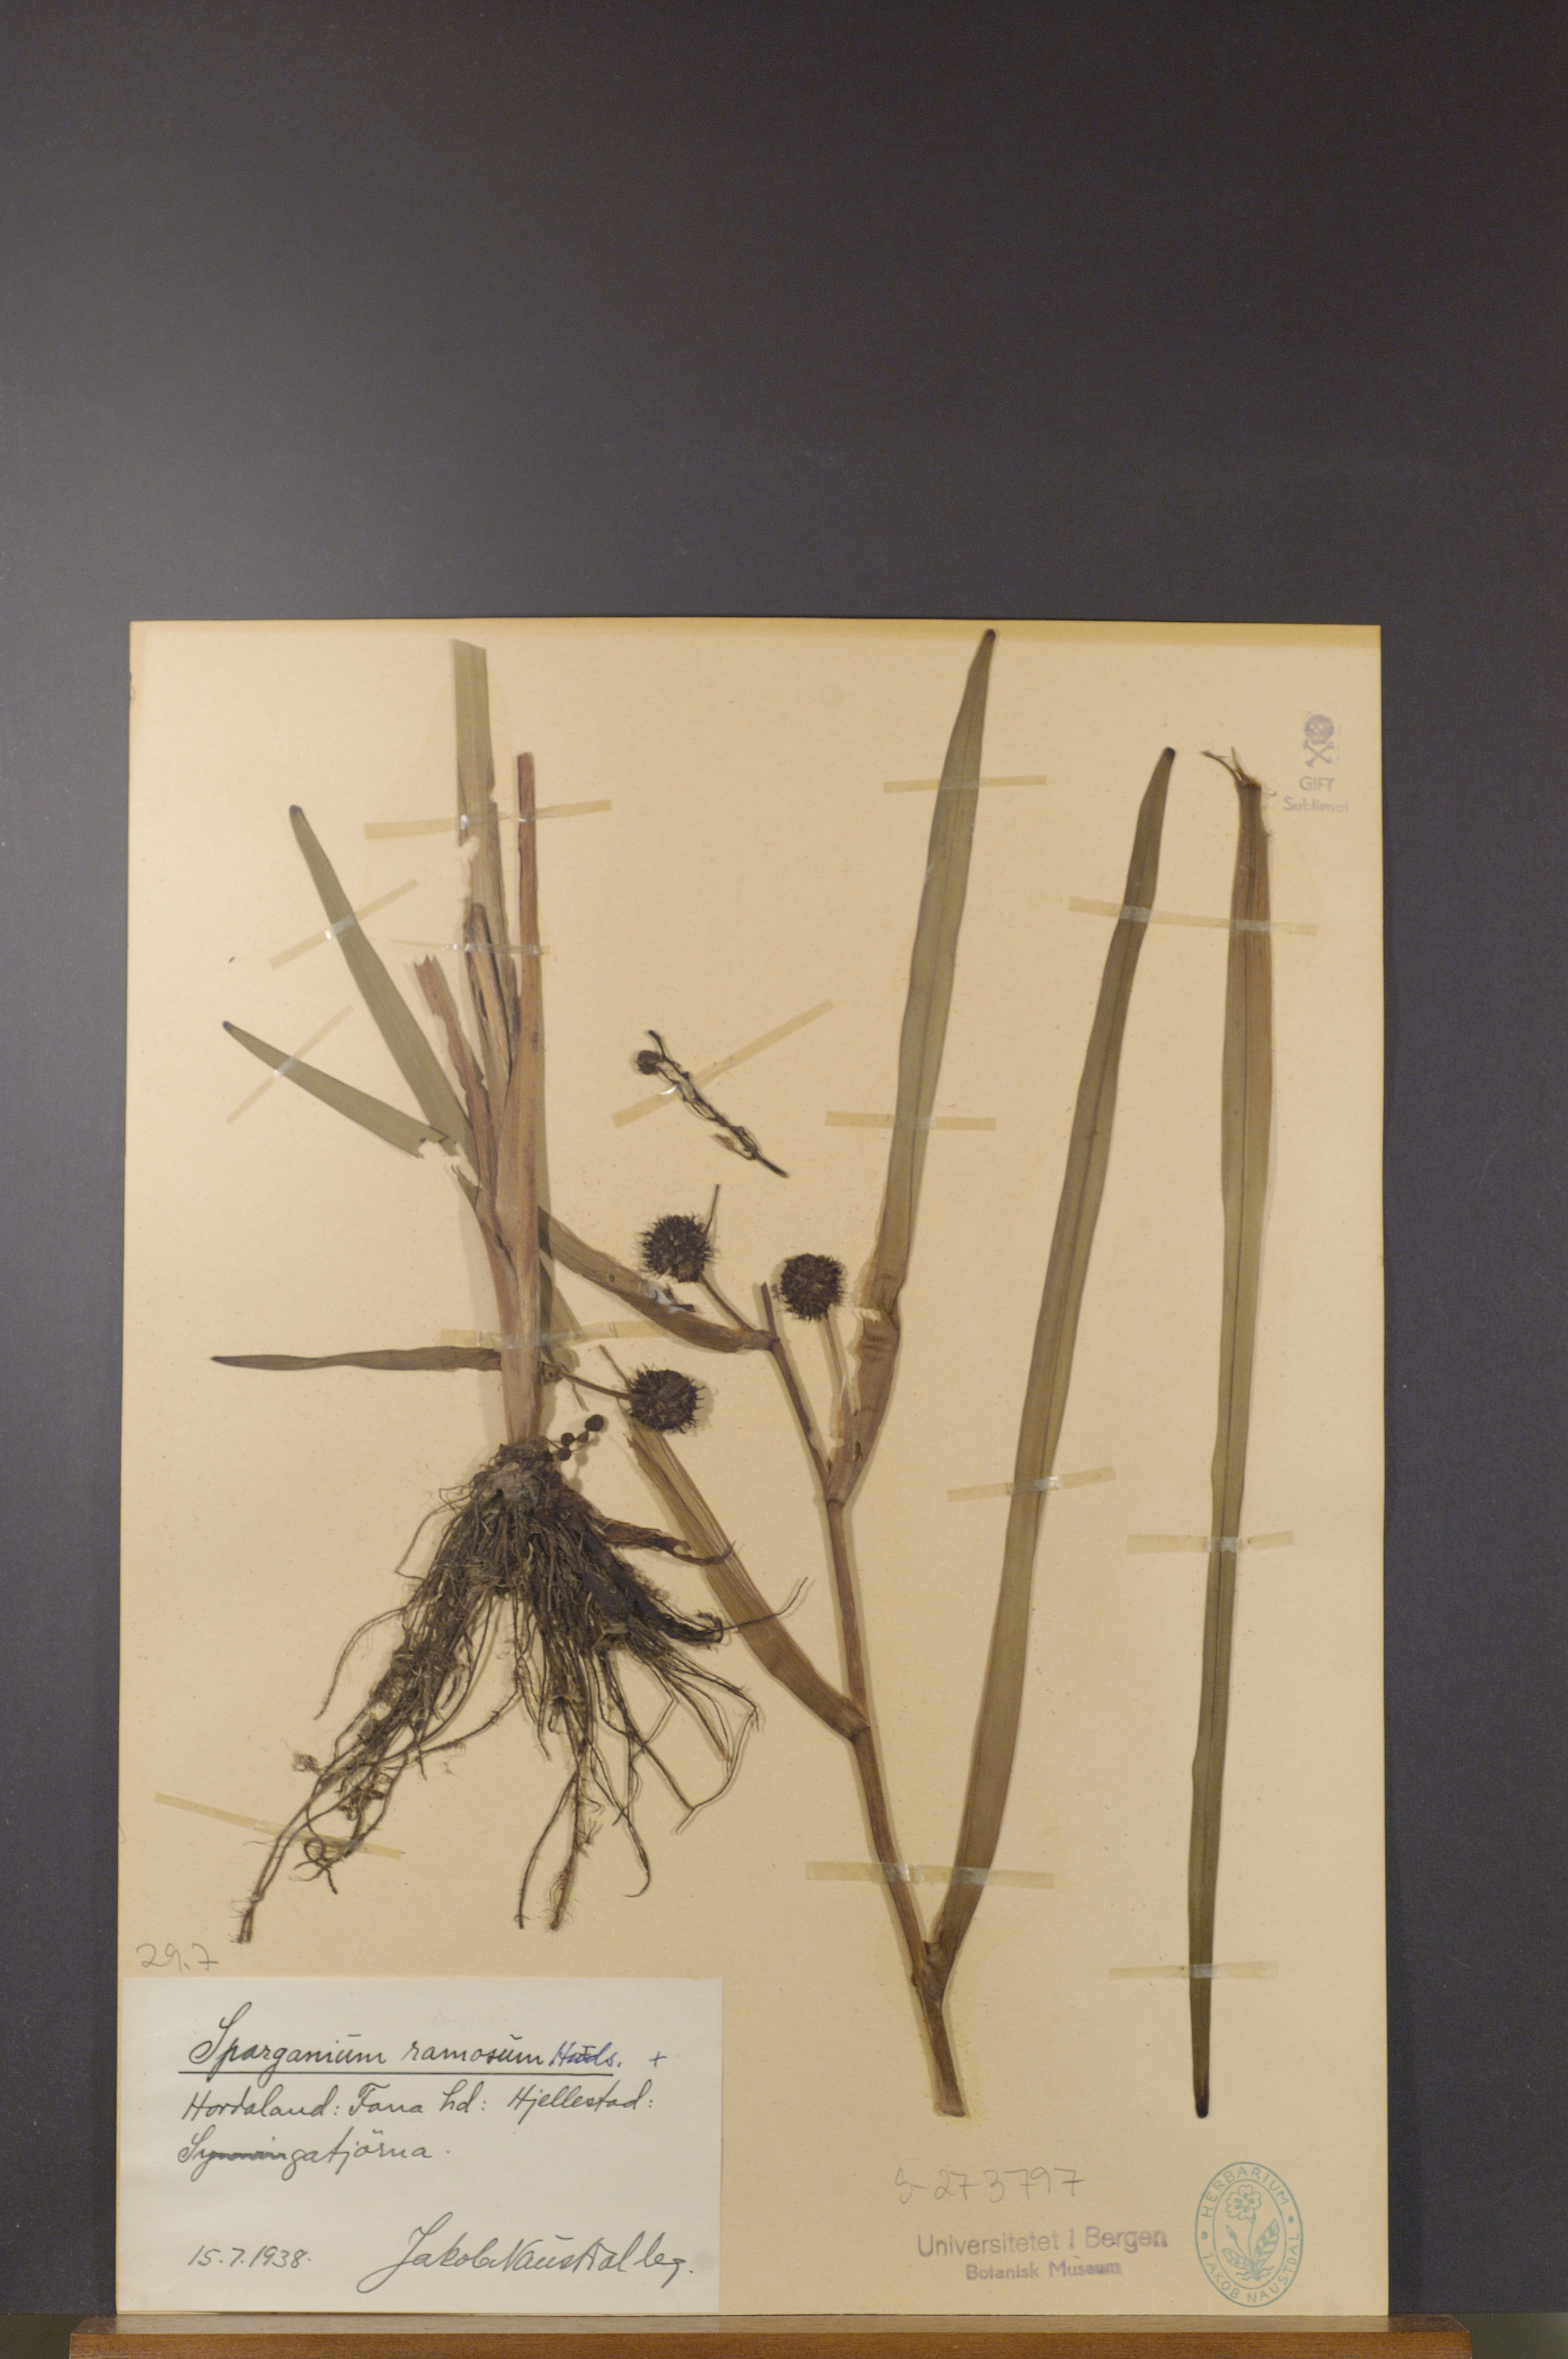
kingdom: Plantae
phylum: Tracheophyta
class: Liliopsida
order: Poales
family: Typhaceae
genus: Sparganium
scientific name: Sparganium erectum
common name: Branched bur-reed
